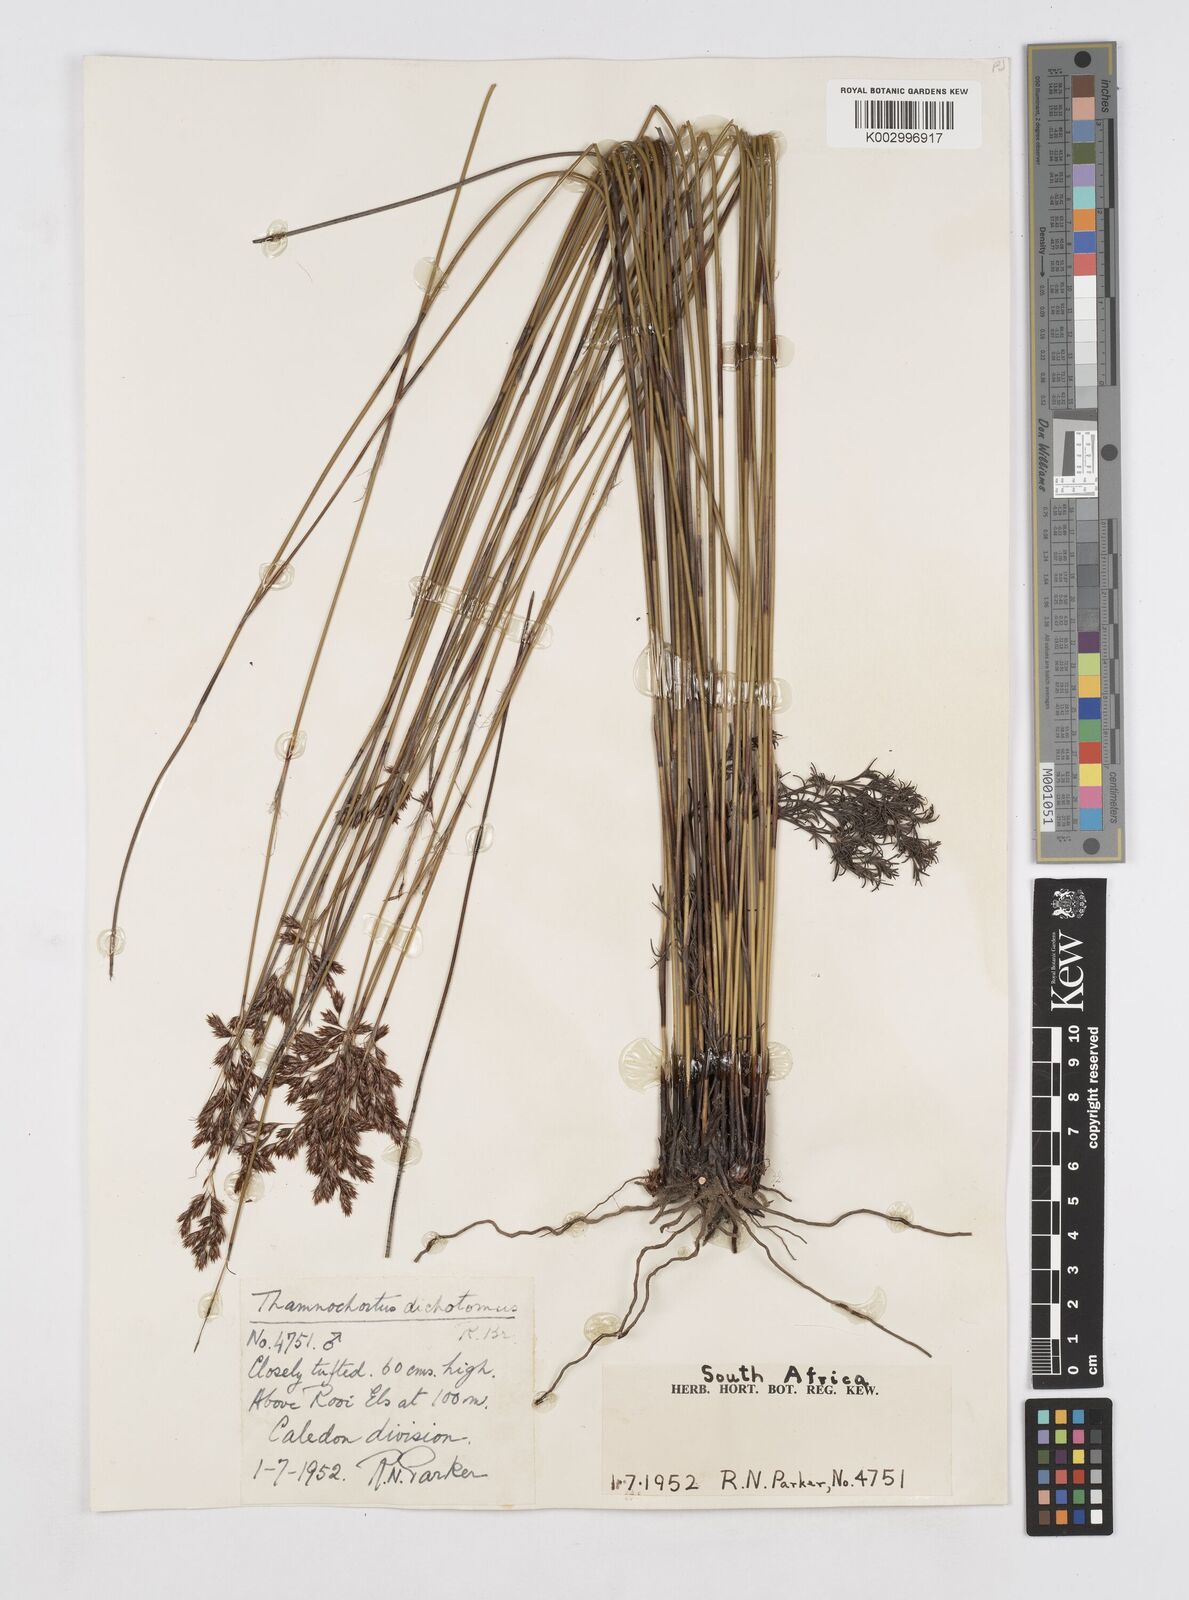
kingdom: Plantae
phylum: Tracheophyta
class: Liliopsida
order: Poales
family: Restionaceae
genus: Thamnochortus
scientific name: Thamnochortus lucens
